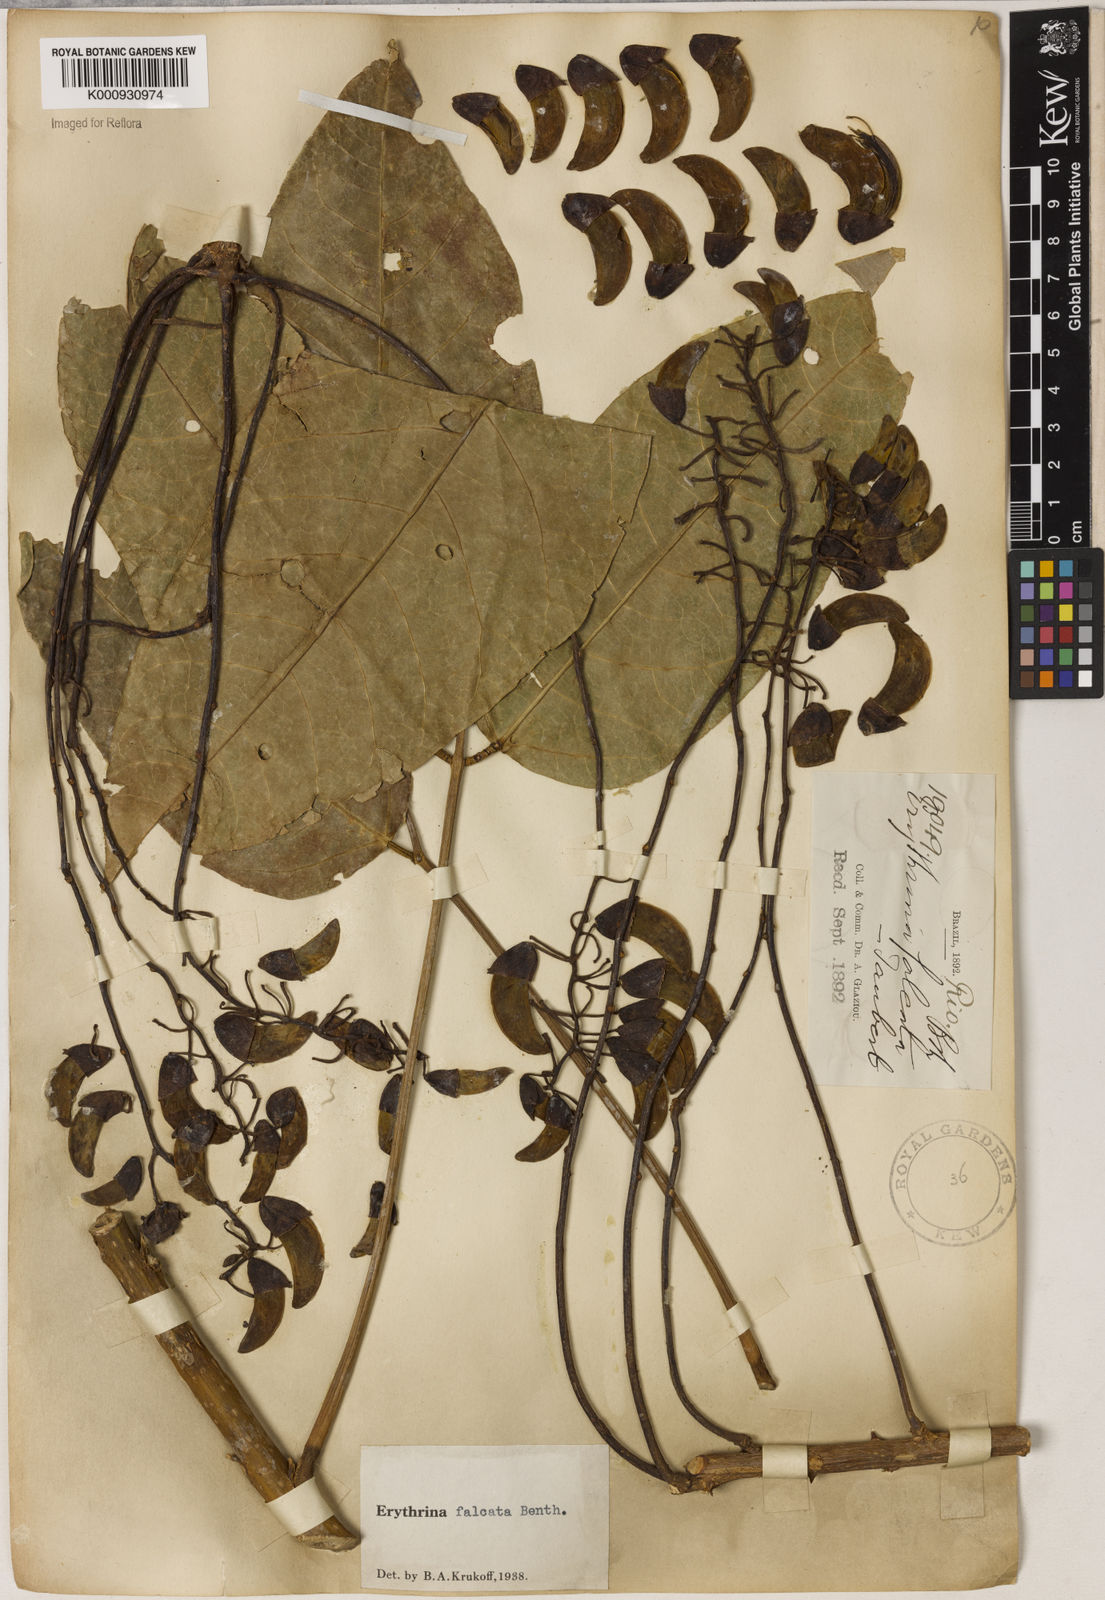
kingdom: Plantae
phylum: Tracheophyta
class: Magnoliopsida
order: Fabales
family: Fabaceae
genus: Erythrina
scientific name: Erythrina falcata
